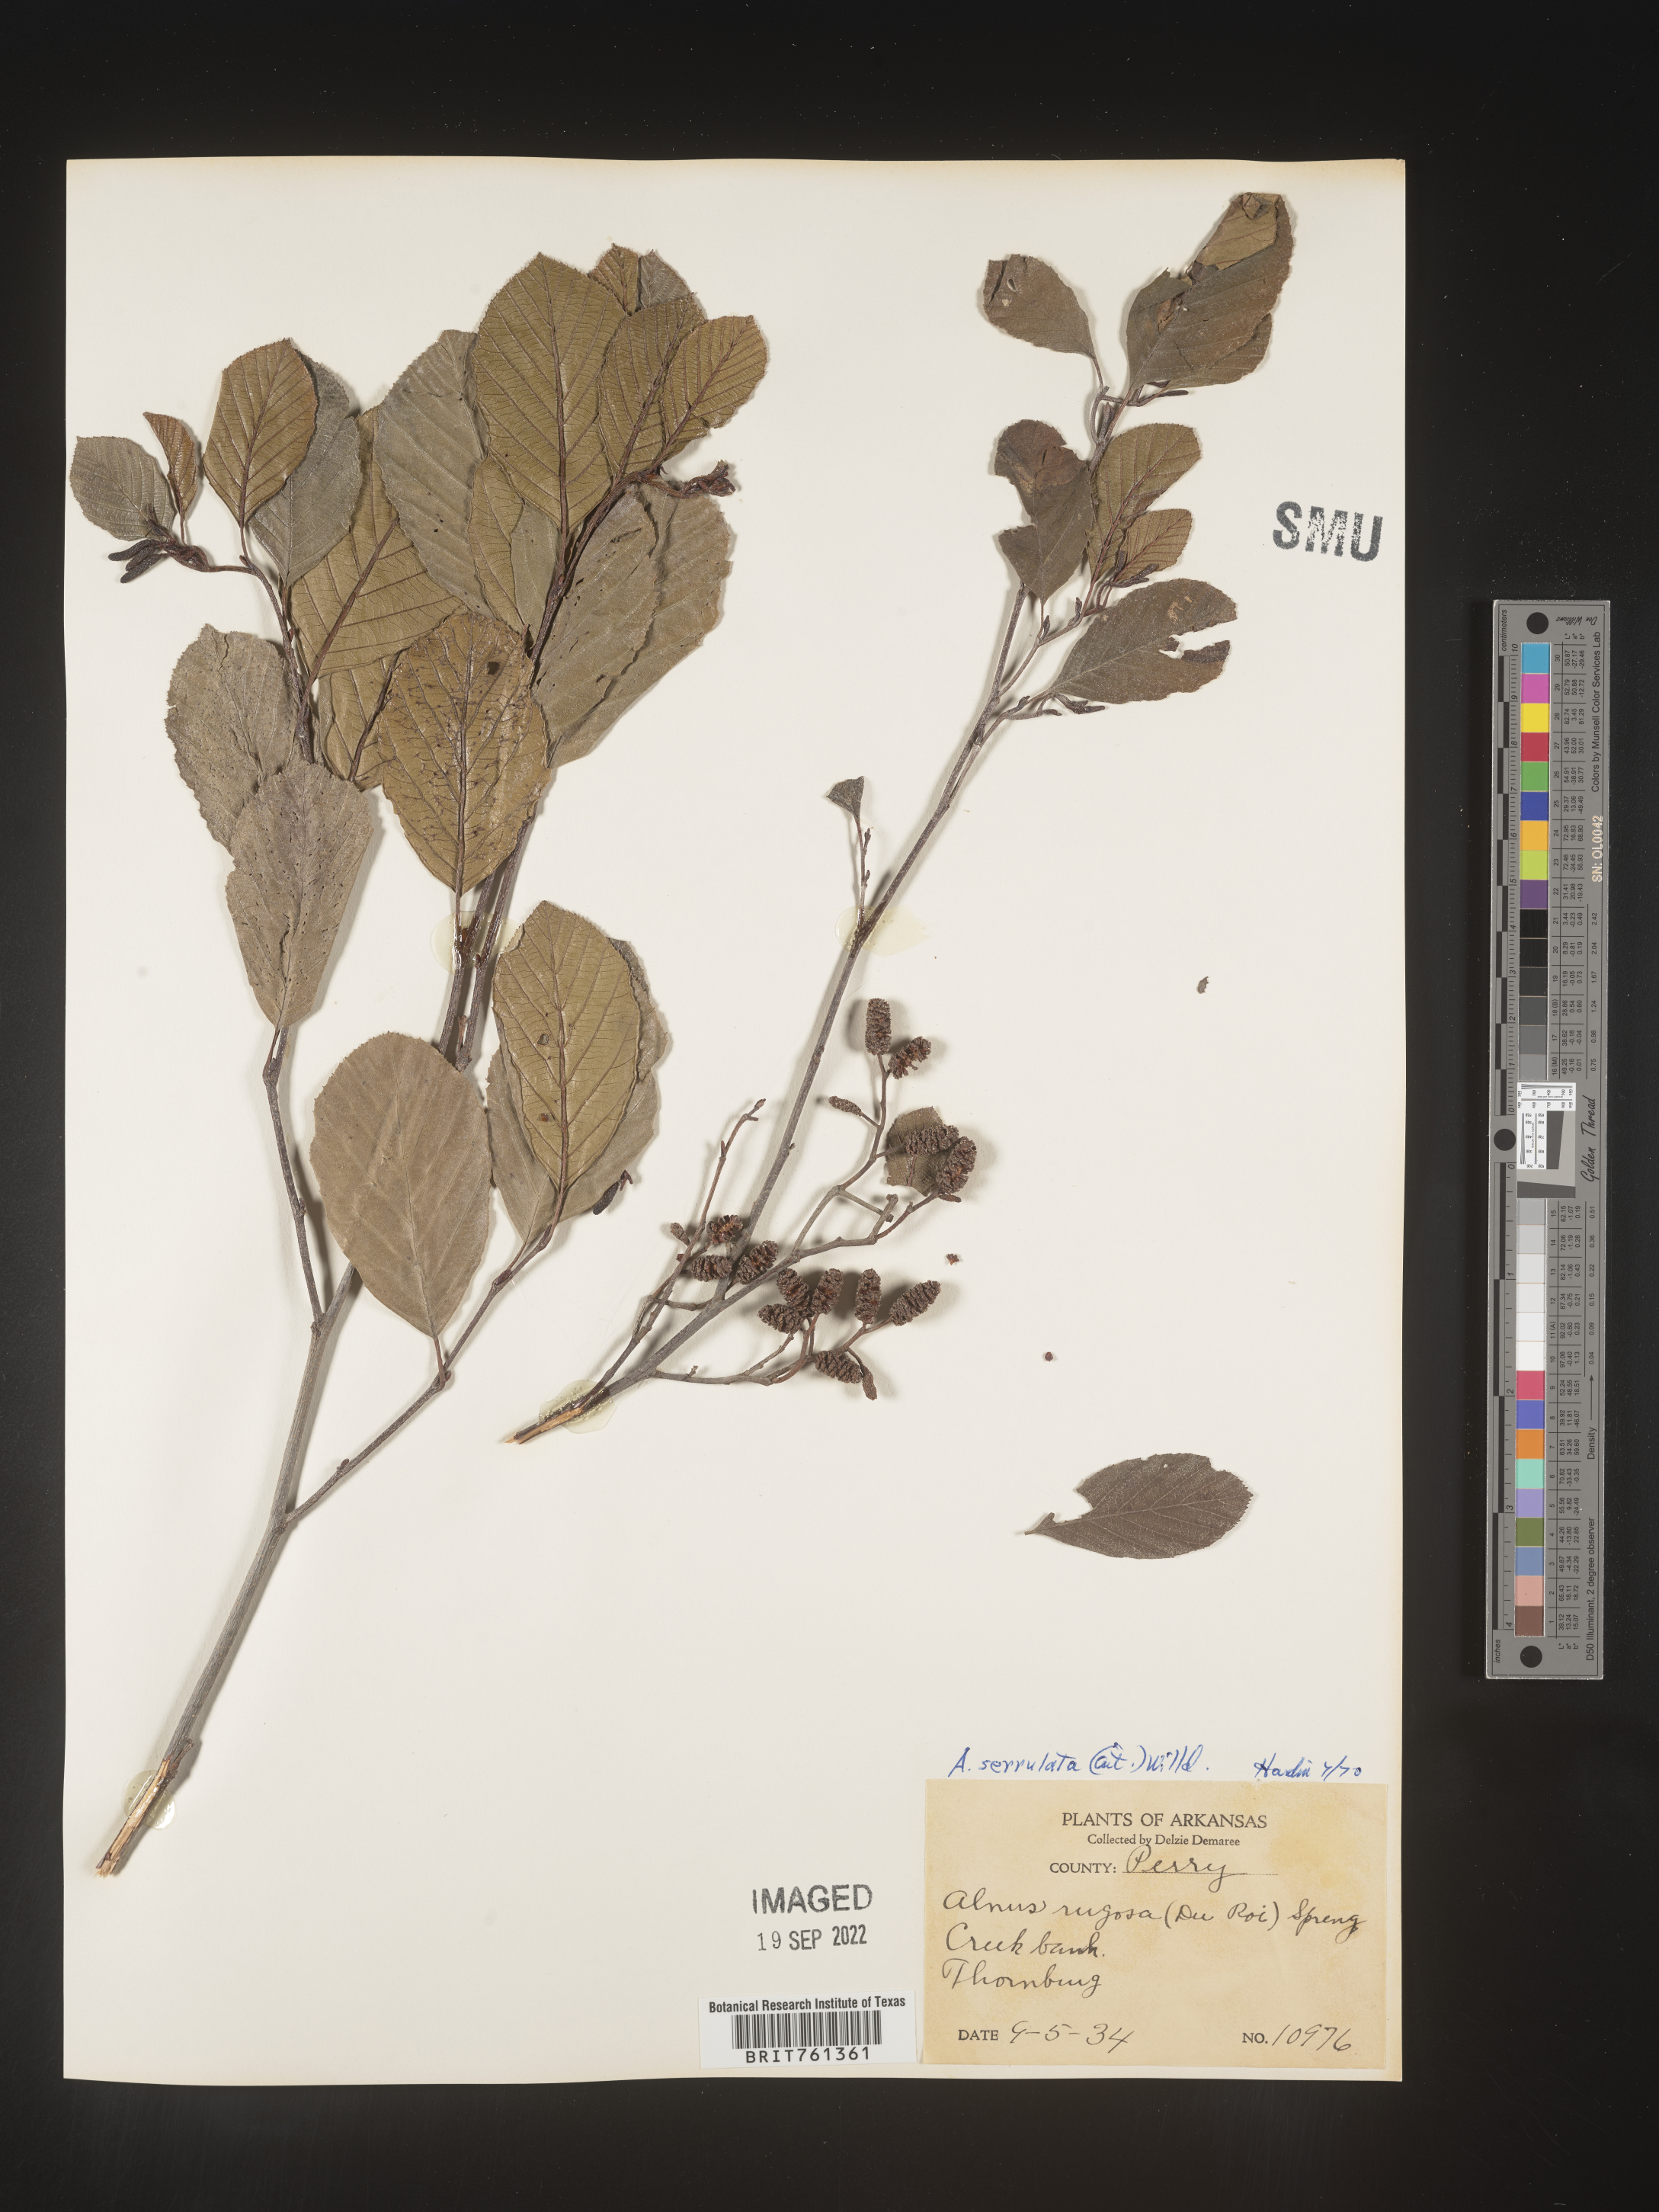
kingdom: Plantae
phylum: Tracheophyta
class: Magnoliopsida
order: Fagales
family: Betulaceae
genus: Alnus
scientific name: Alnus serrulata
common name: Hazel alder
